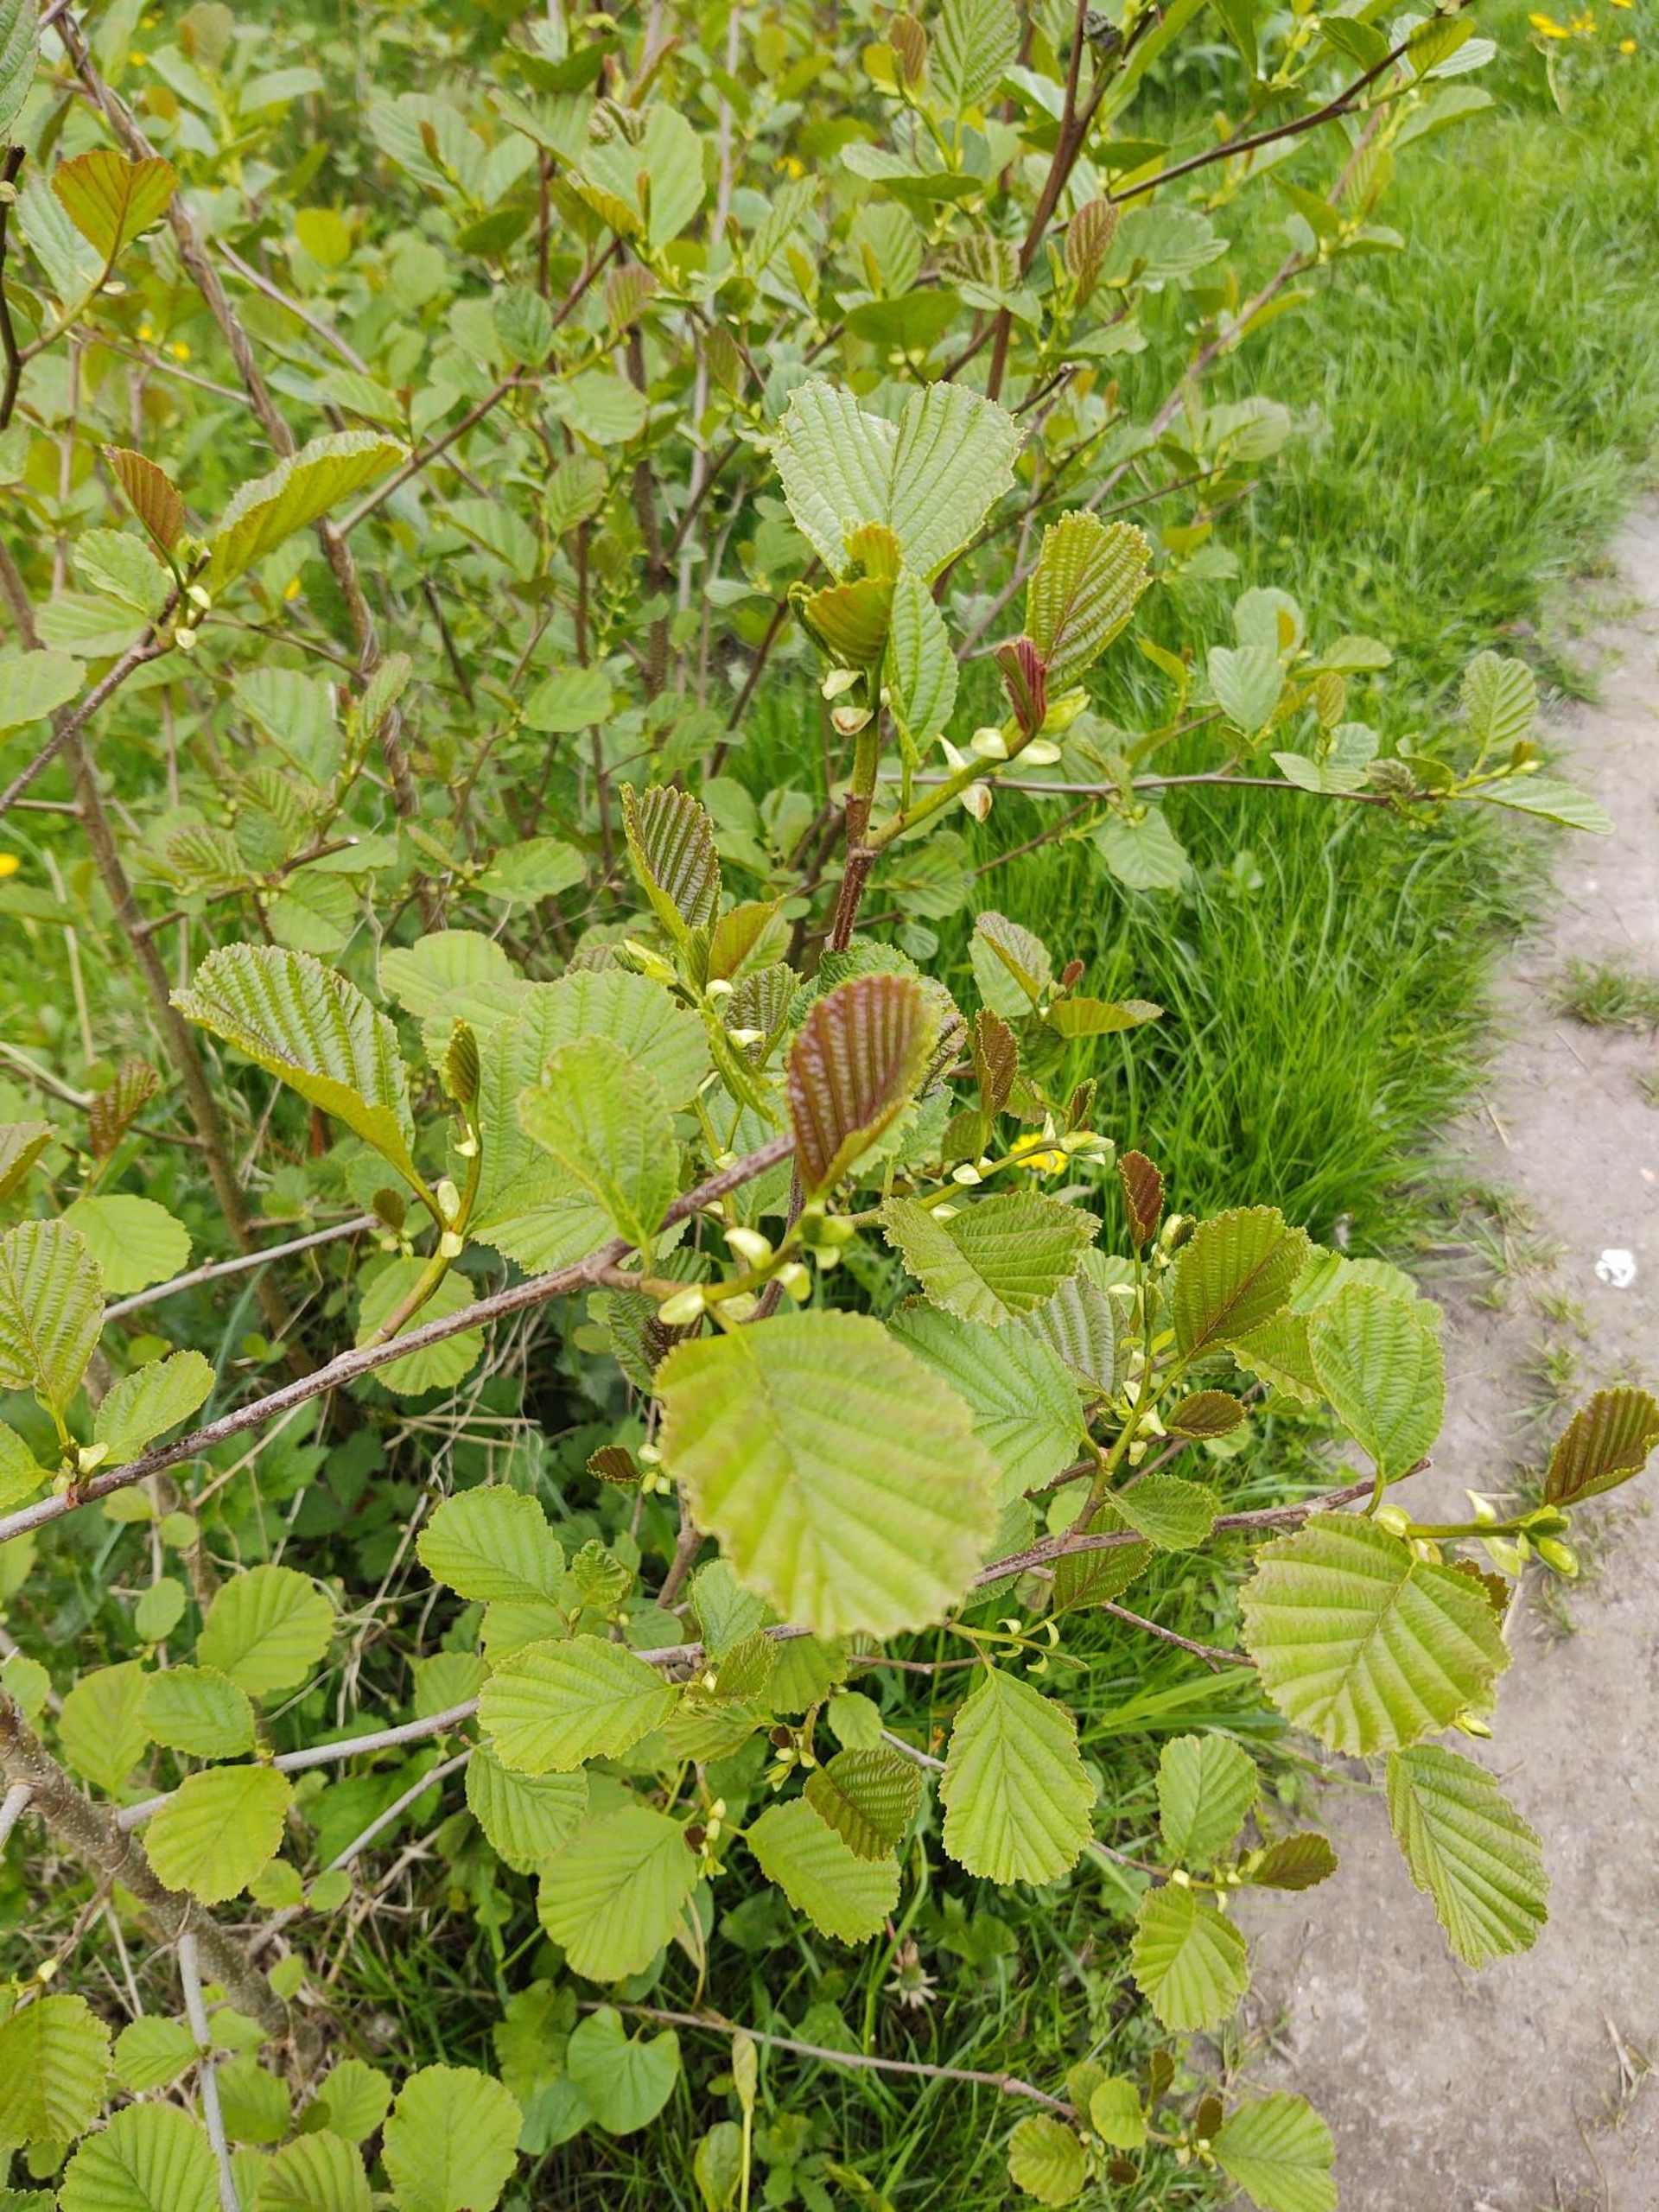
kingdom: Plantae
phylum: Tracheophyta
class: Magnoliopsida
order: Fagales
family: Betulaceae
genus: Alnus
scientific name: Alnus glutinosa
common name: Rød-el
